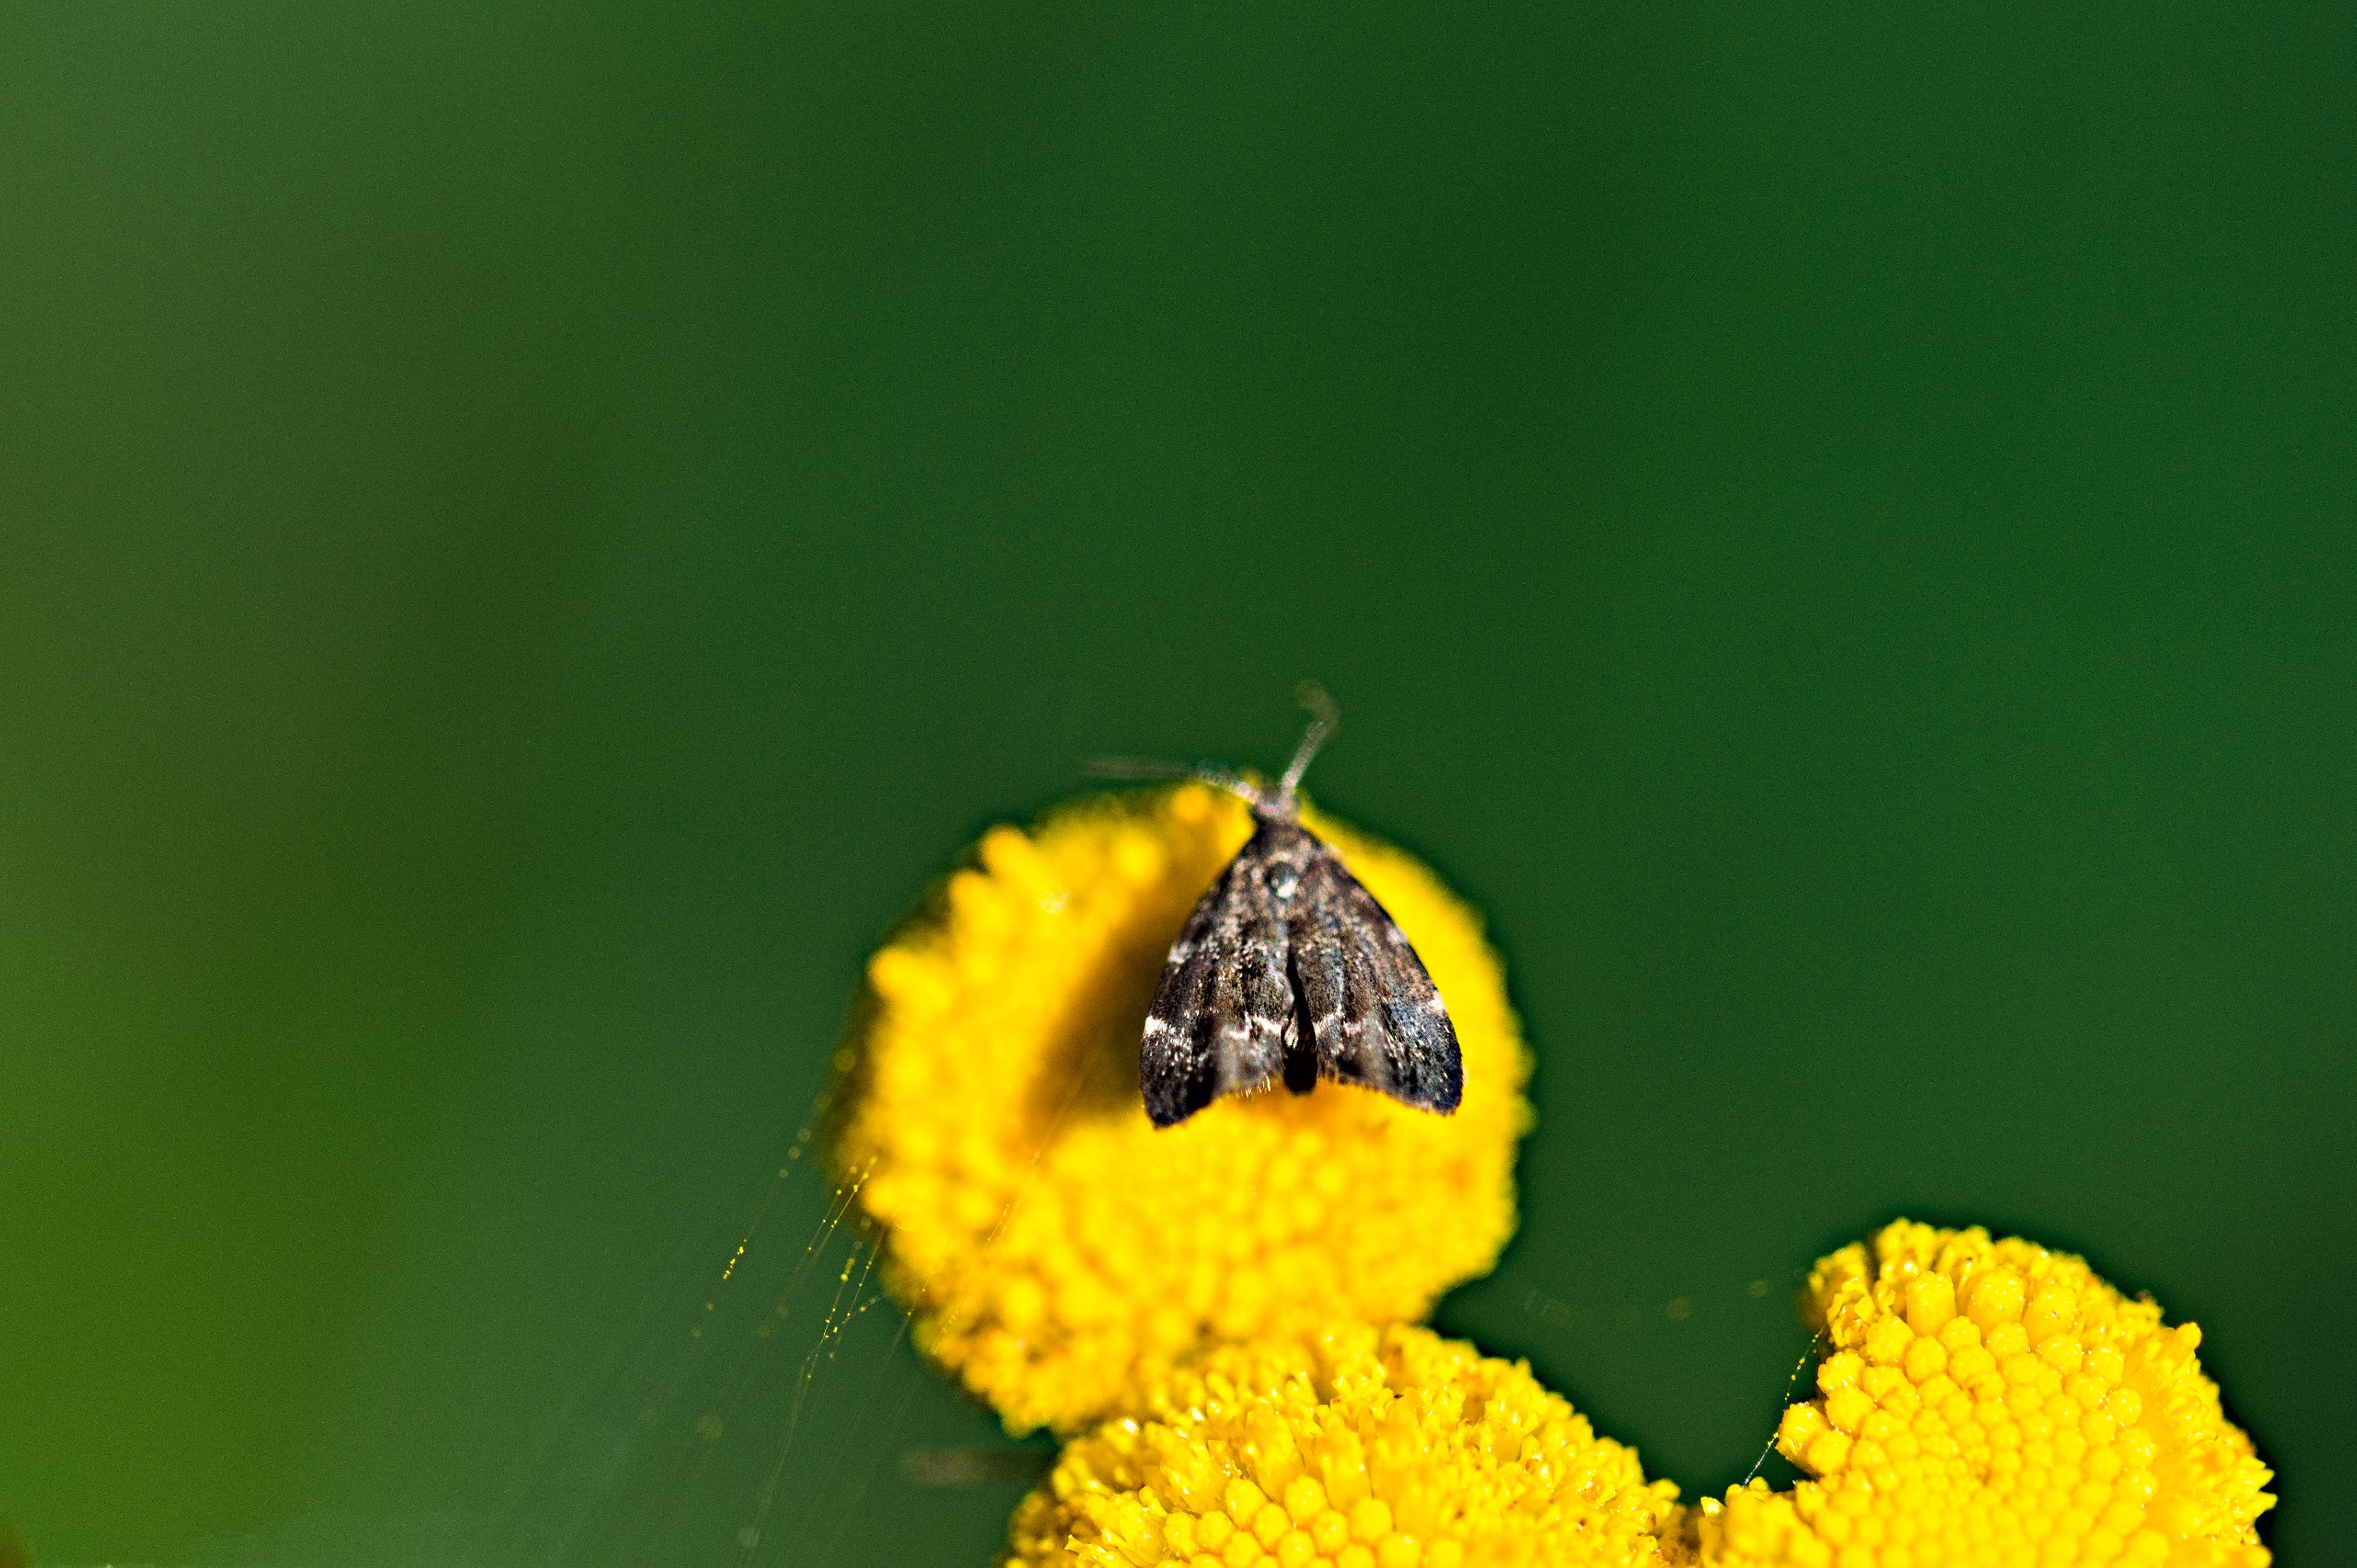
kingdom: Animalia
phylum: Arthropoda
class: Insecta
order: Lepidoptera
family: Choreutidae
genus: Anthophila
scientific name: Anthophila fabriciana
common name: Bredvinget nældevikler
